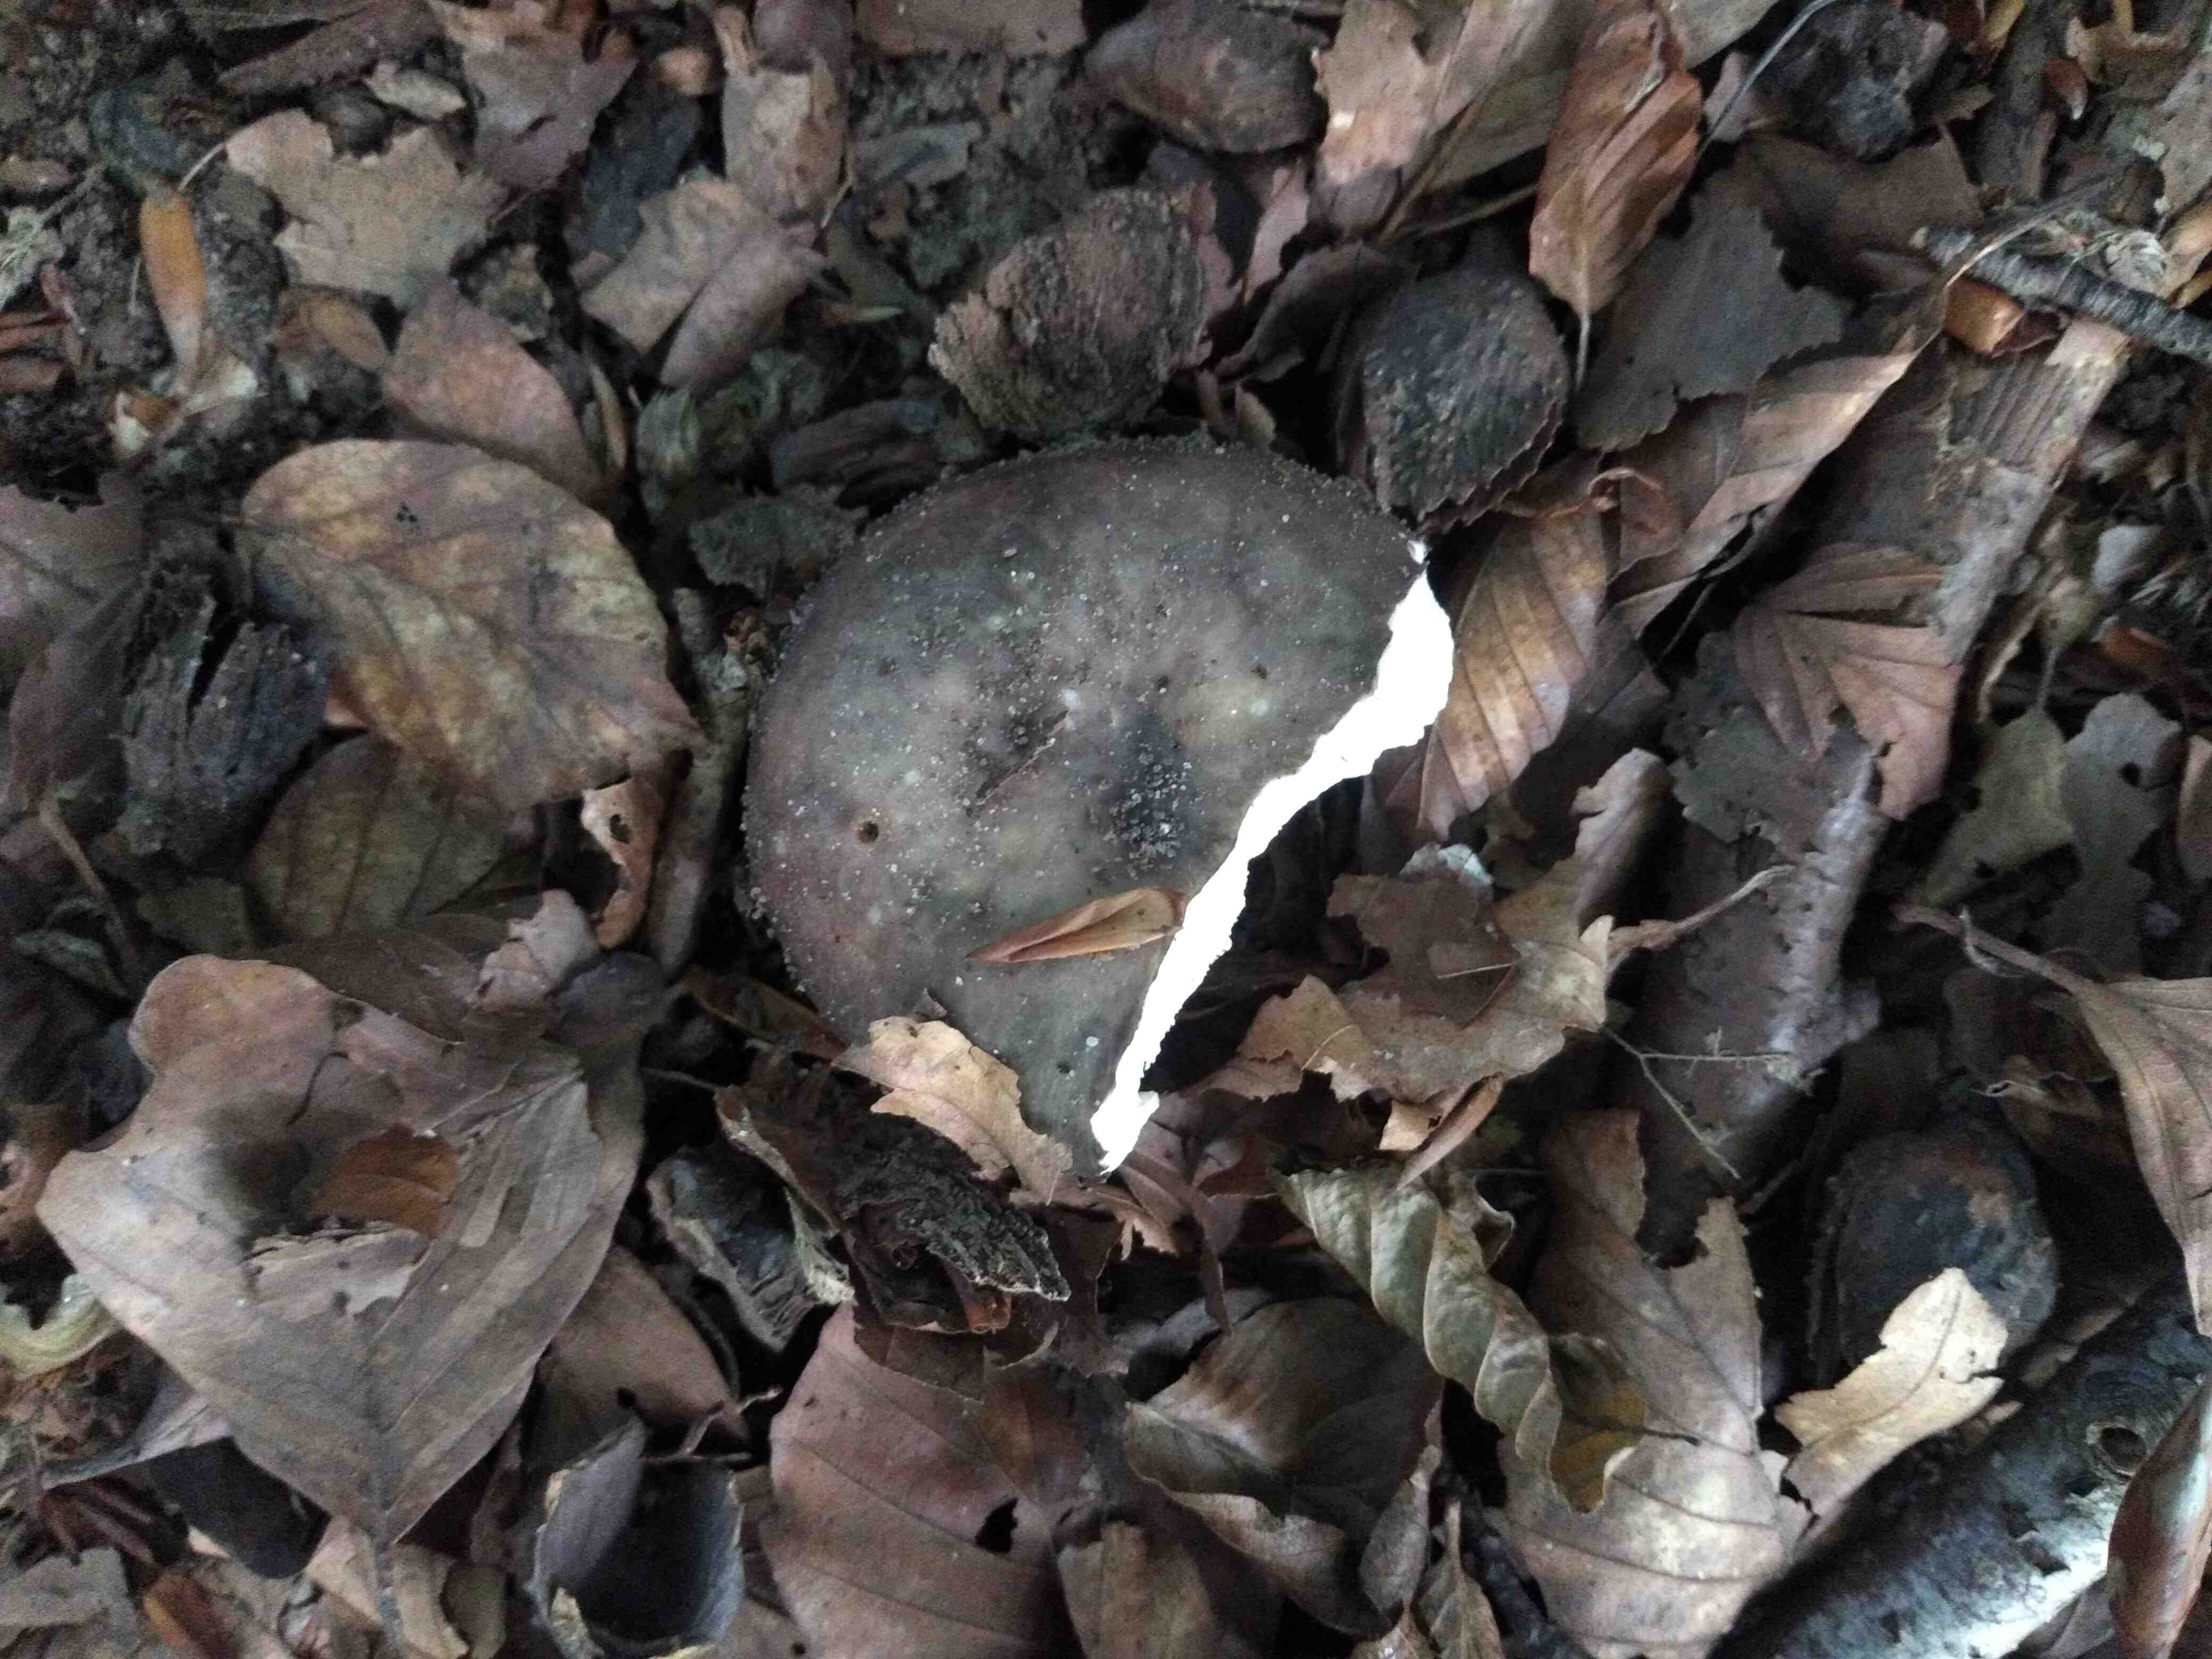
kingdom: Fungi
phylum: Basidiomycota
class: Agaricomycetes
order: Russulales
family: Russulaceae
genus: Russula
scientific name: Russula
